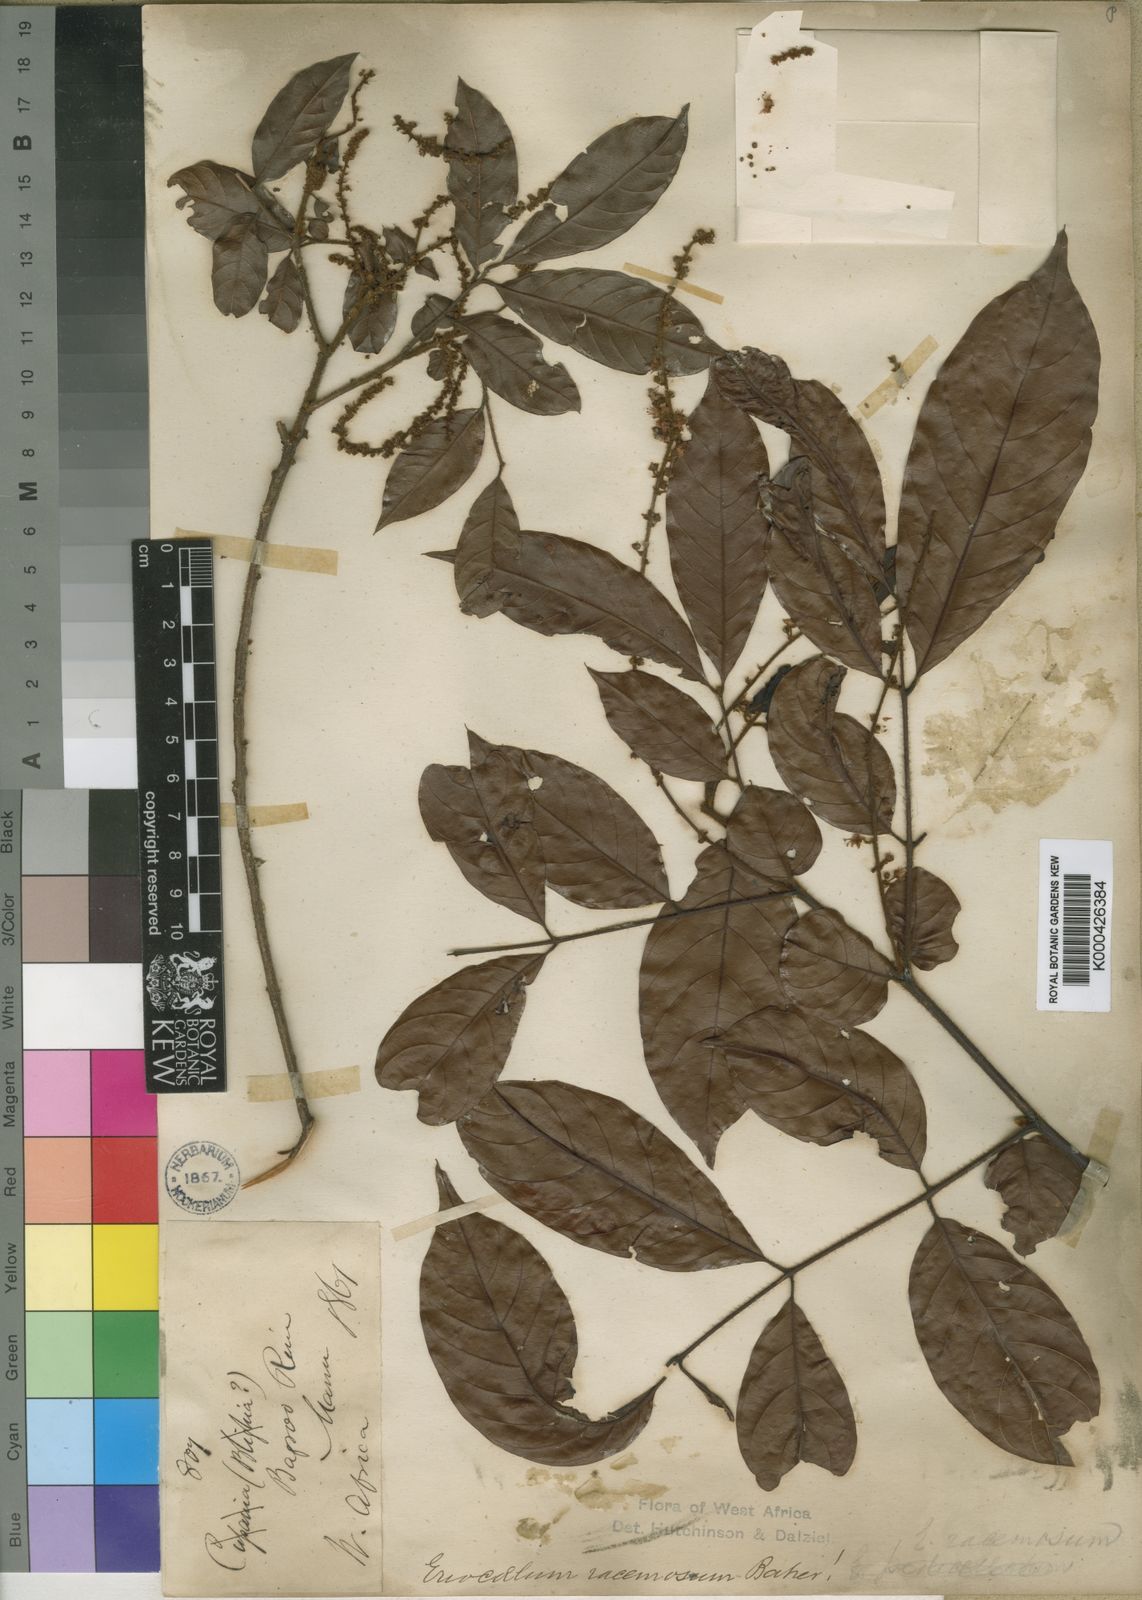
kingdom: Plantae
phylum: Tracheophyta
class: Magnoliopsida
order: Sapindales
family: Sapindaceae
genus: Eriocoelum
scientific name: Eriocoelum racemosum
